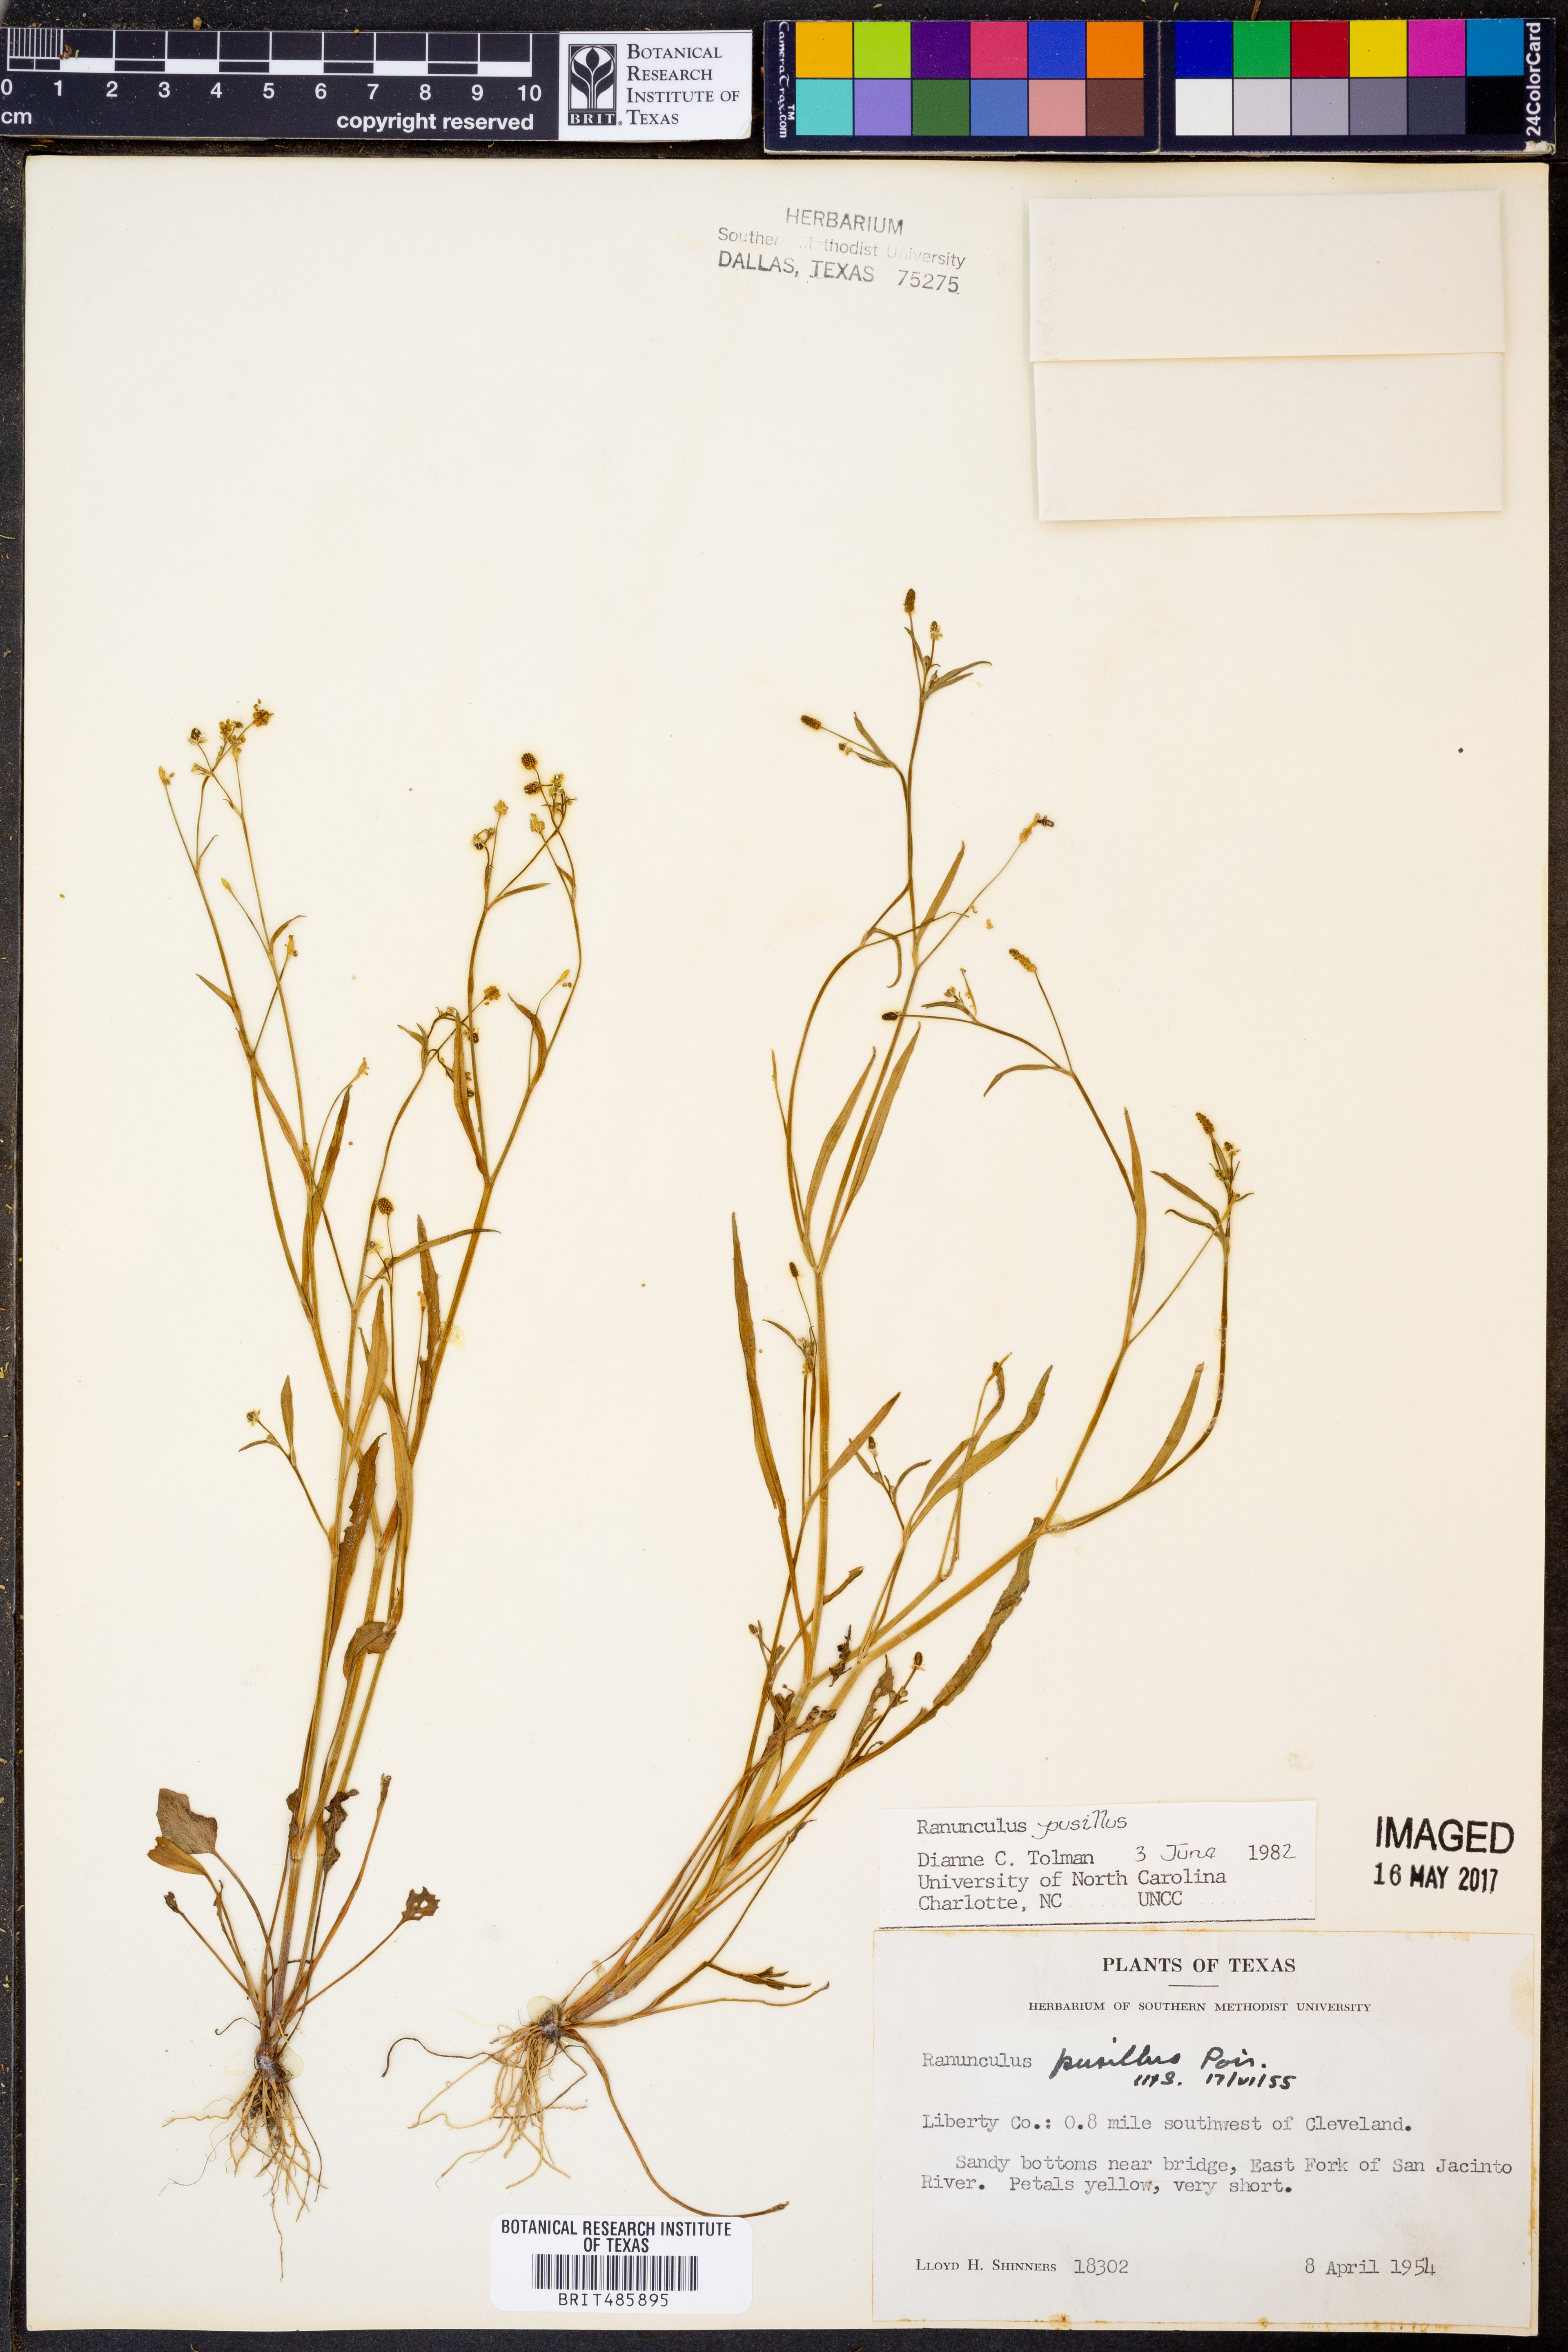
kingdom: Plantae
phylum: Tracheophyta
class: Magnoliopsida
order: Ranunculales
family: Ranunculaceae
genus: Ranunculus
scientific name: Ranunculus pusillus
